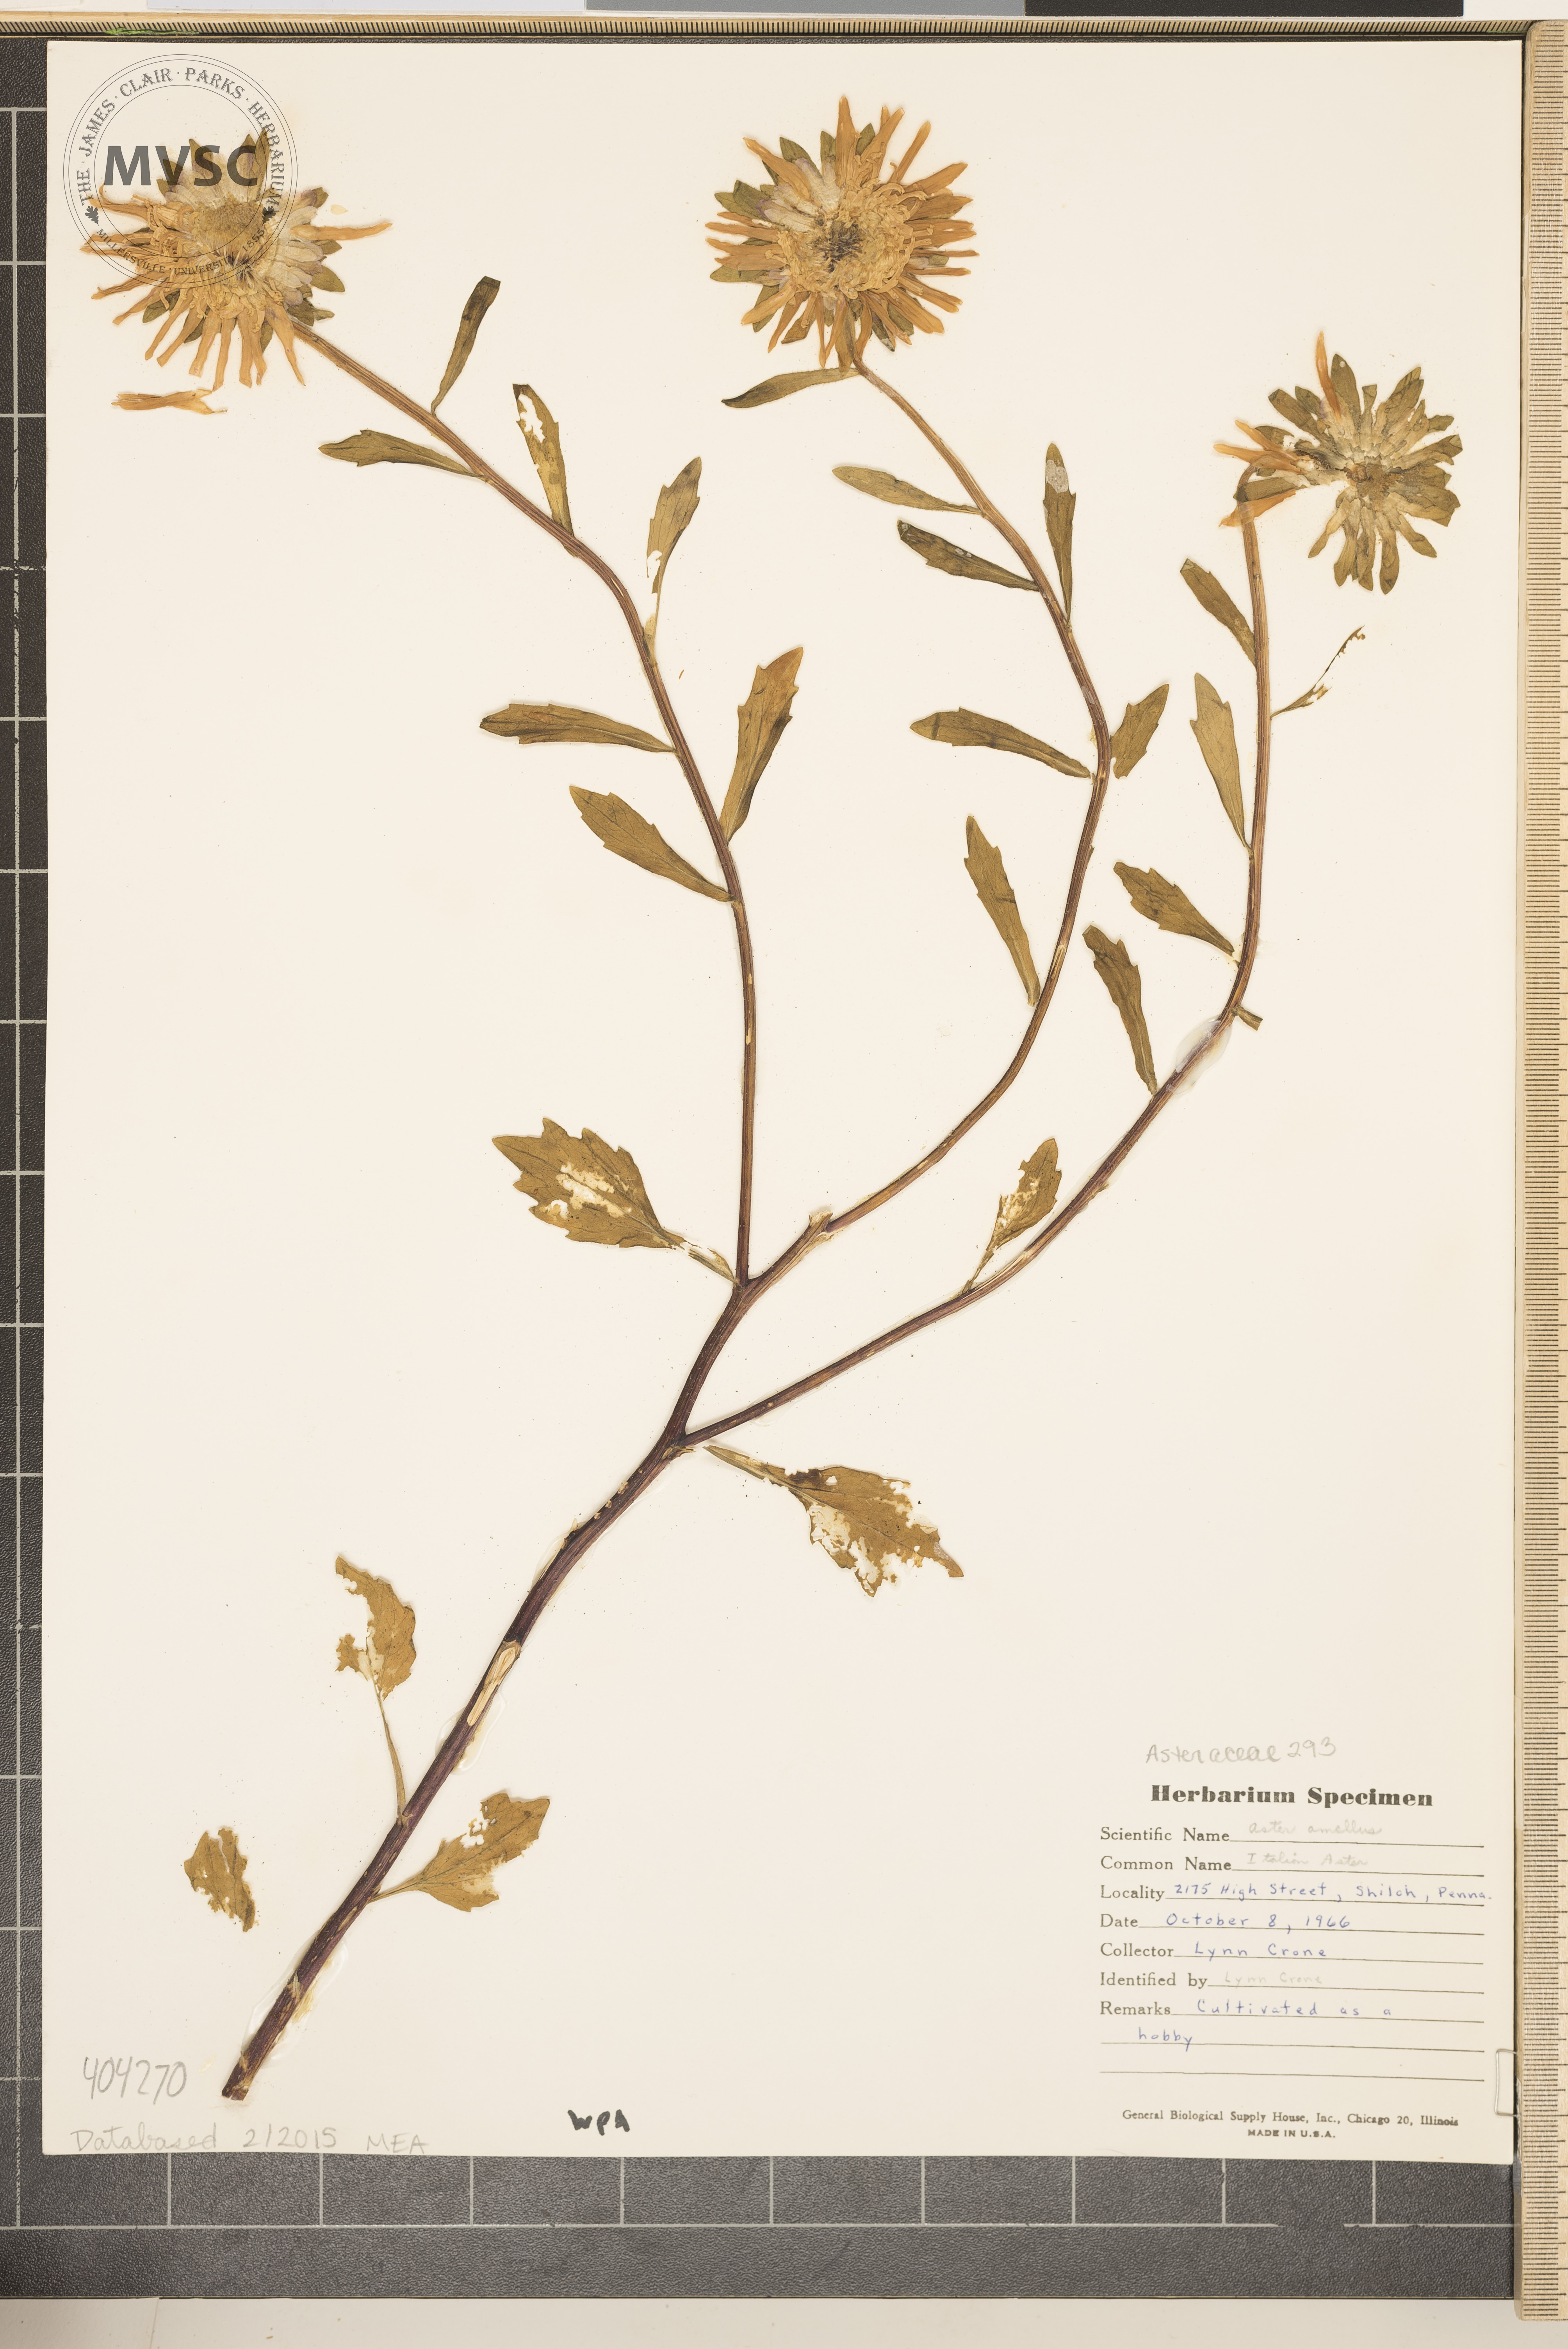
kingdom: Plantae
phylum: Tracheophyta
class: Magnoliopsida
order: Asterales
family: Asteraceae
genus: Aster
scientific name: Aster amellus
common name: Italian Aster
